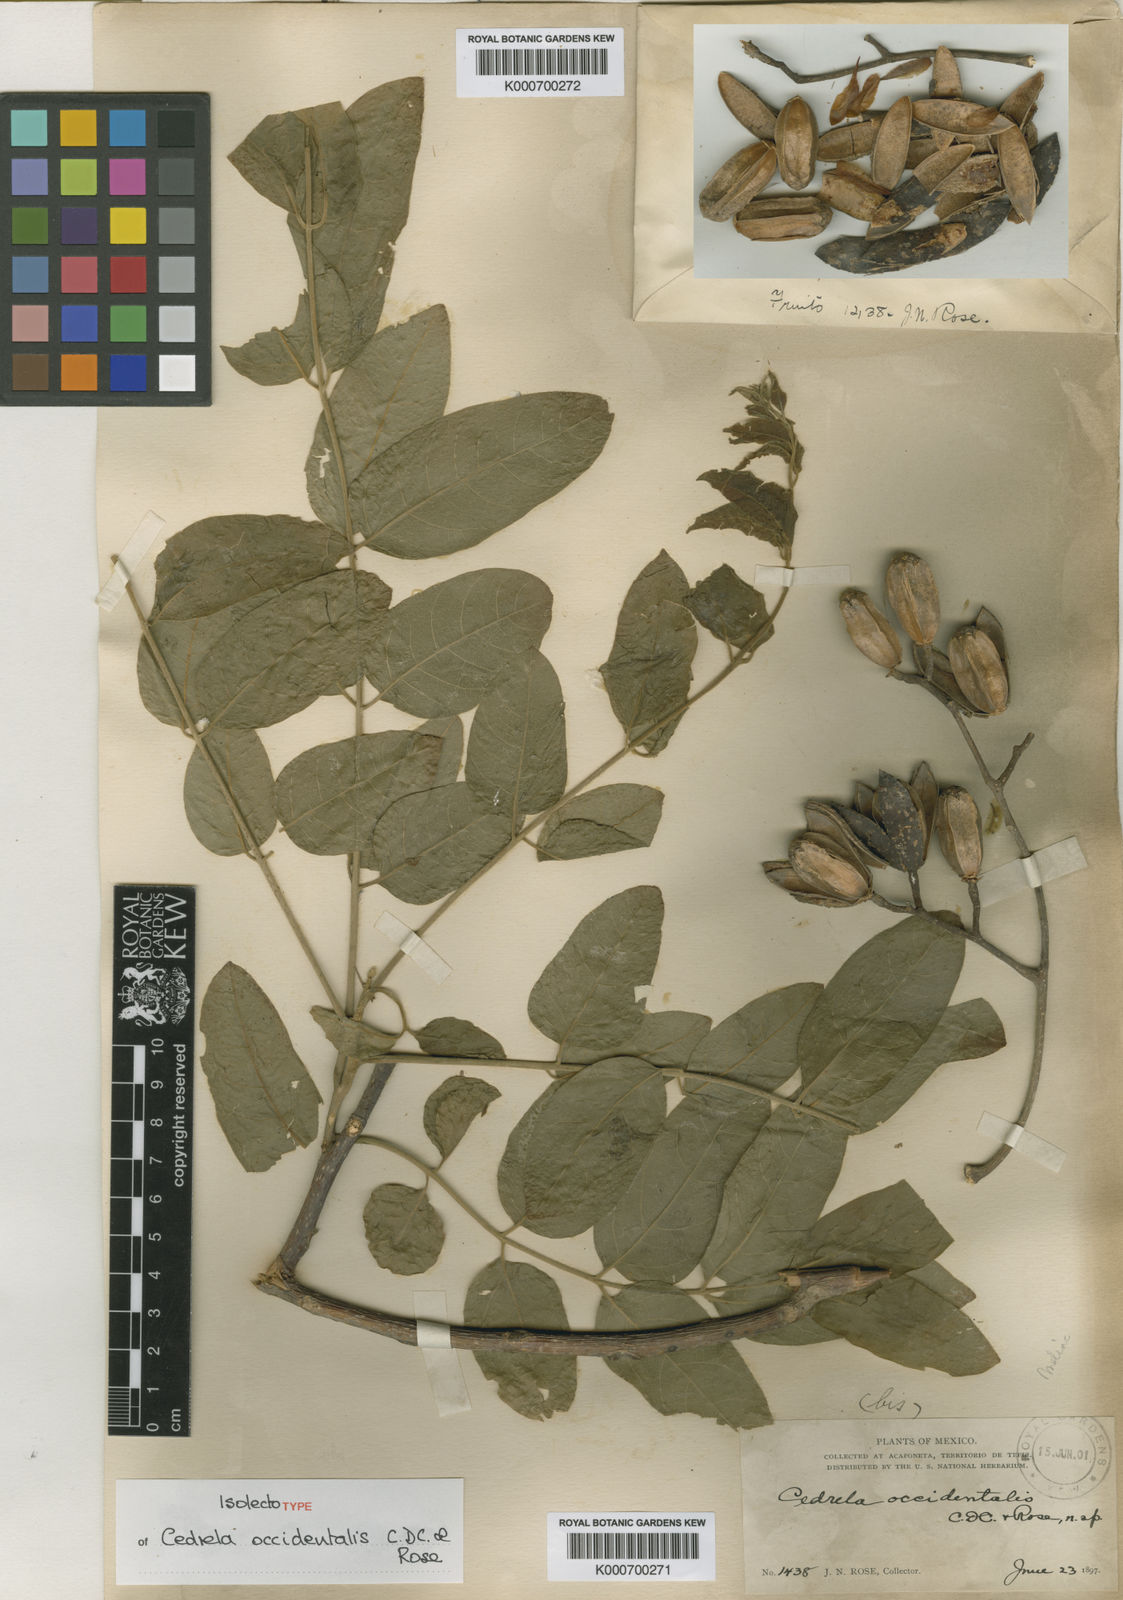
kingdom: Plantae
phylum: Tracheophyta
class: Magnoliopsida
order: Sapindales
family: Meliaceae
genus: Cedrela
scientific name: Cedrela odorata
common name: Red cedar
